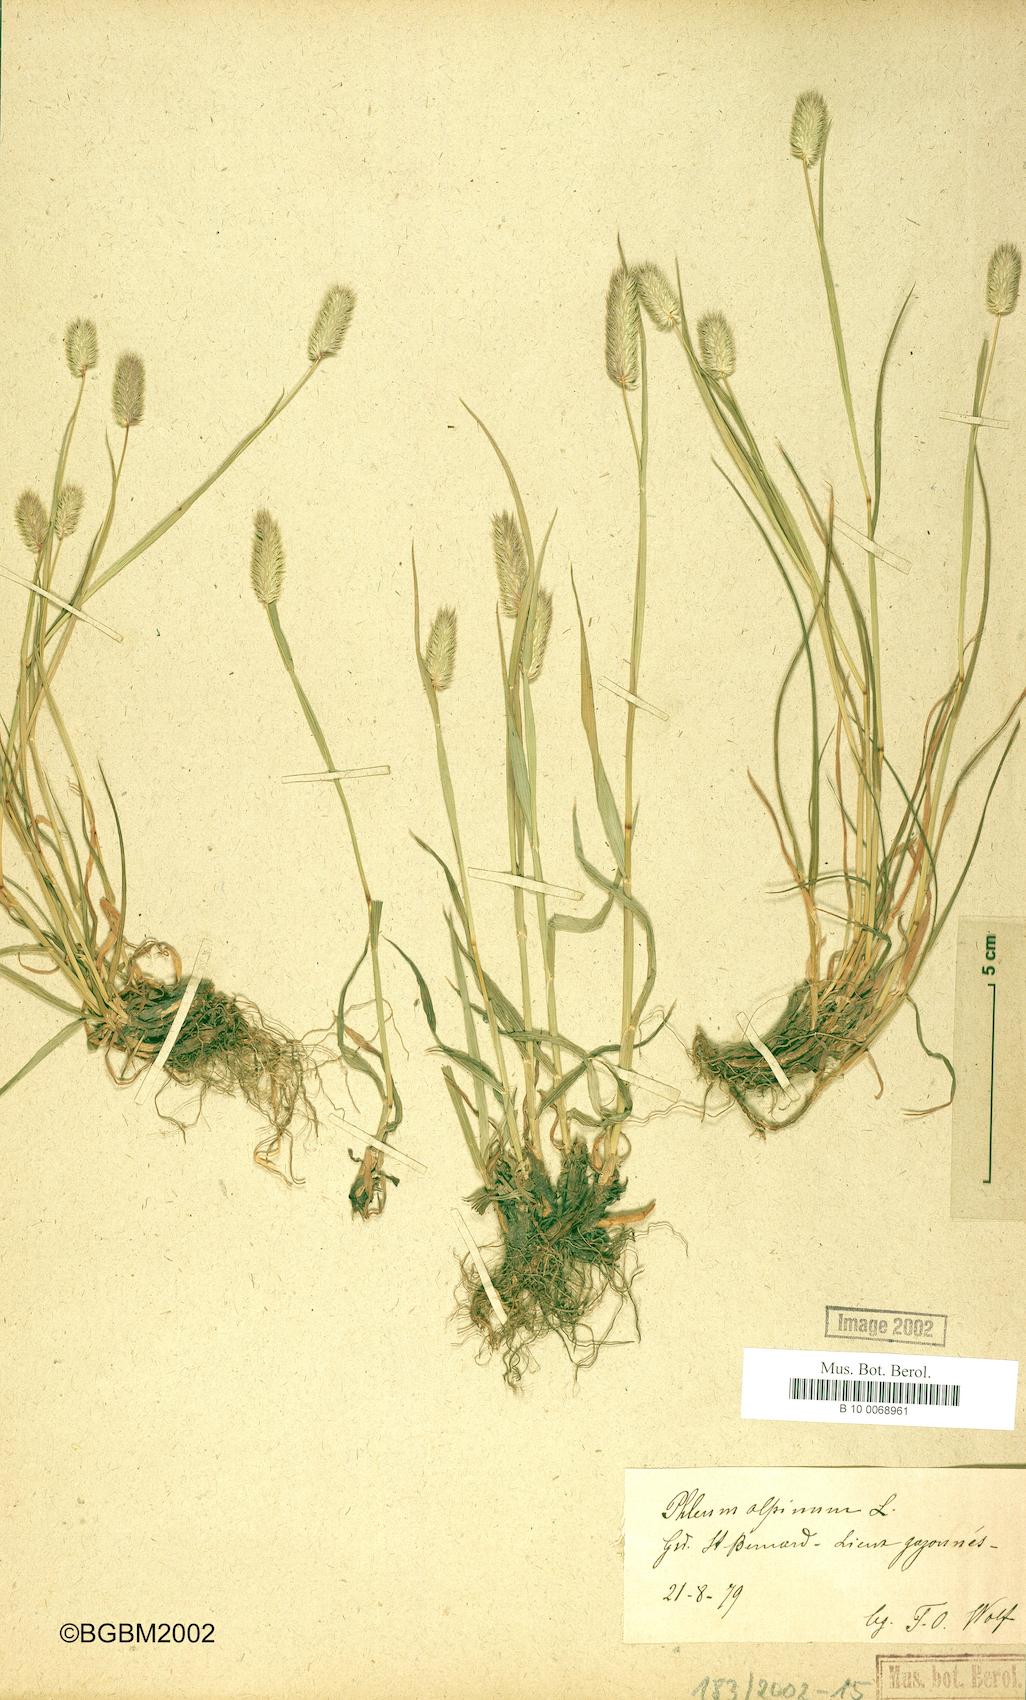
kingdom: Plantae
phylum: Tracheophyta
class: Liliopsida
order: Poales
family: Poaceae
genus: Phleum
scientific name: Phleum alpinum
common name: Alpine cat's-tail
